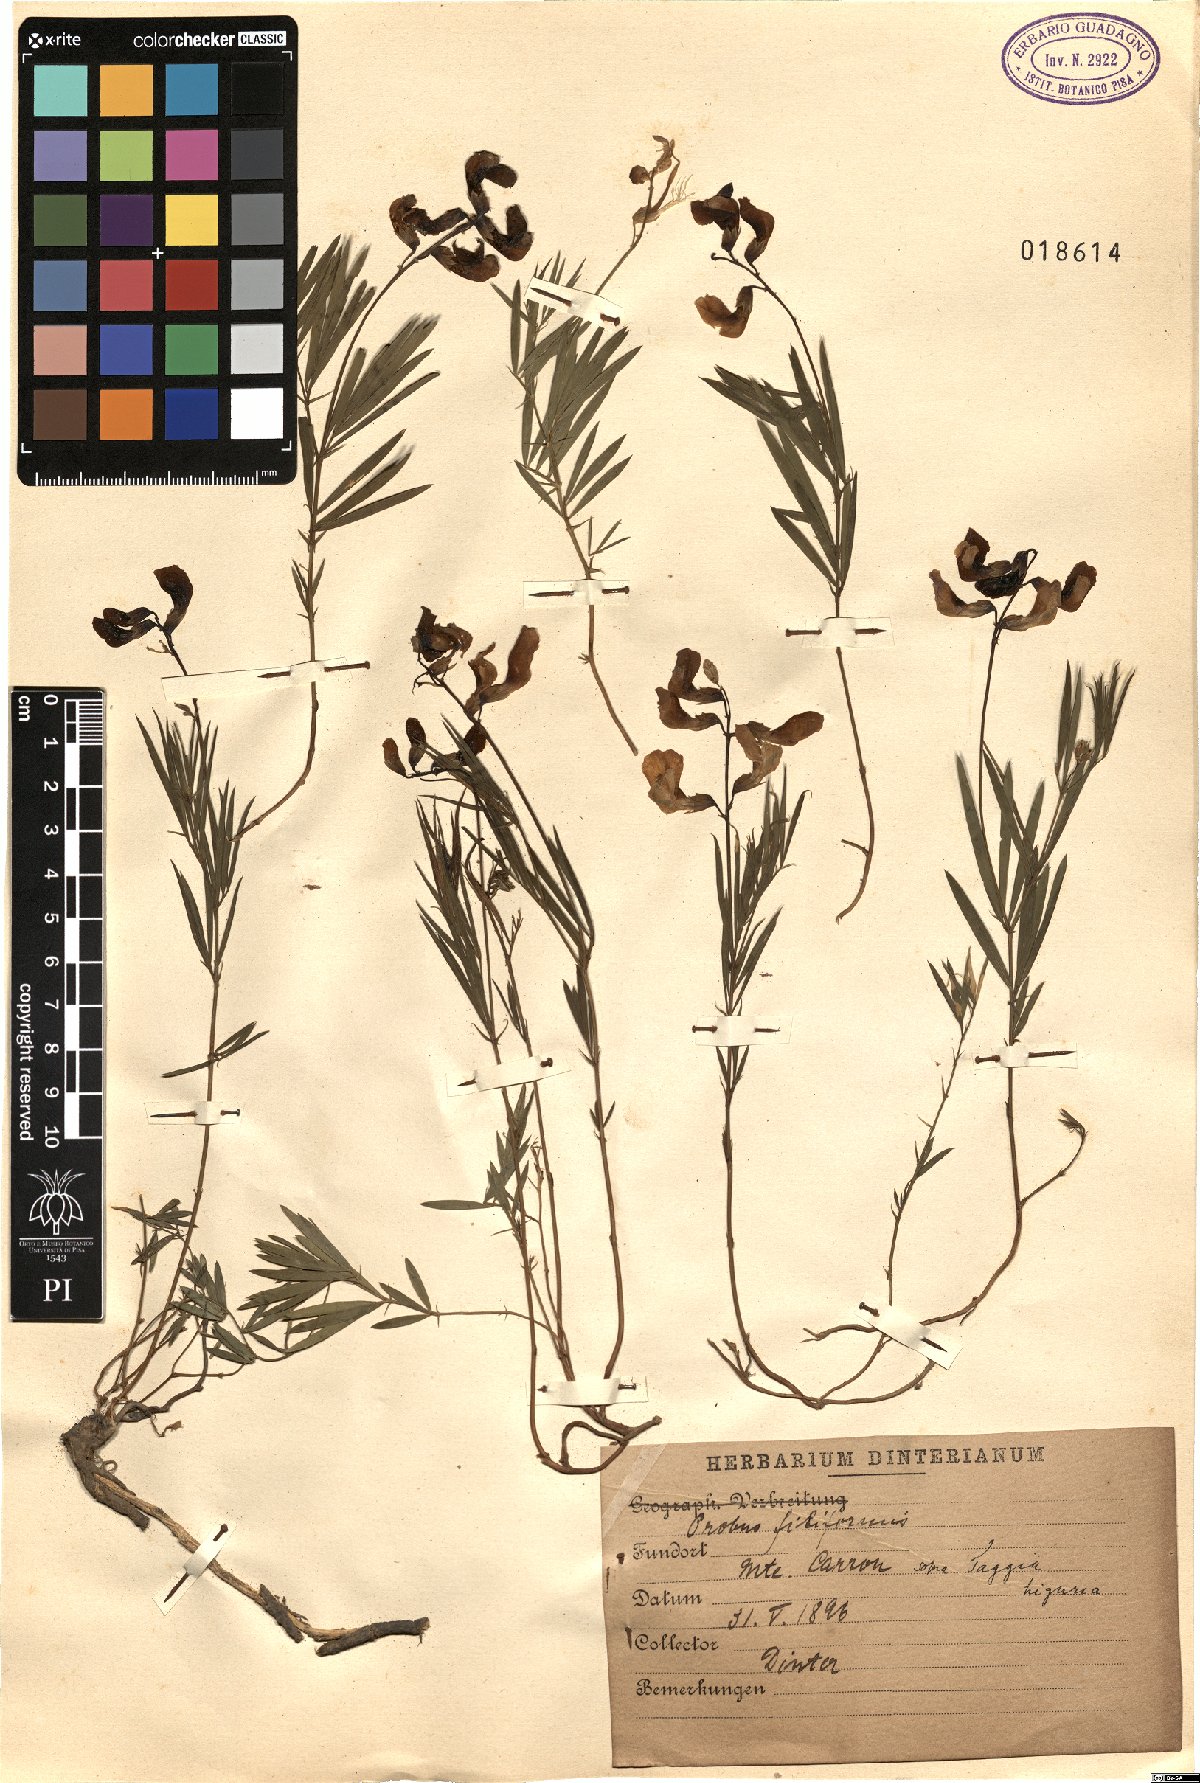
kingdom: Plantae
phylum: Tracheophyta
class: Magnoliopsida
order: Fabales
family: Fabaceae
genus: Lathyrus
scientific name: Lathyrus
